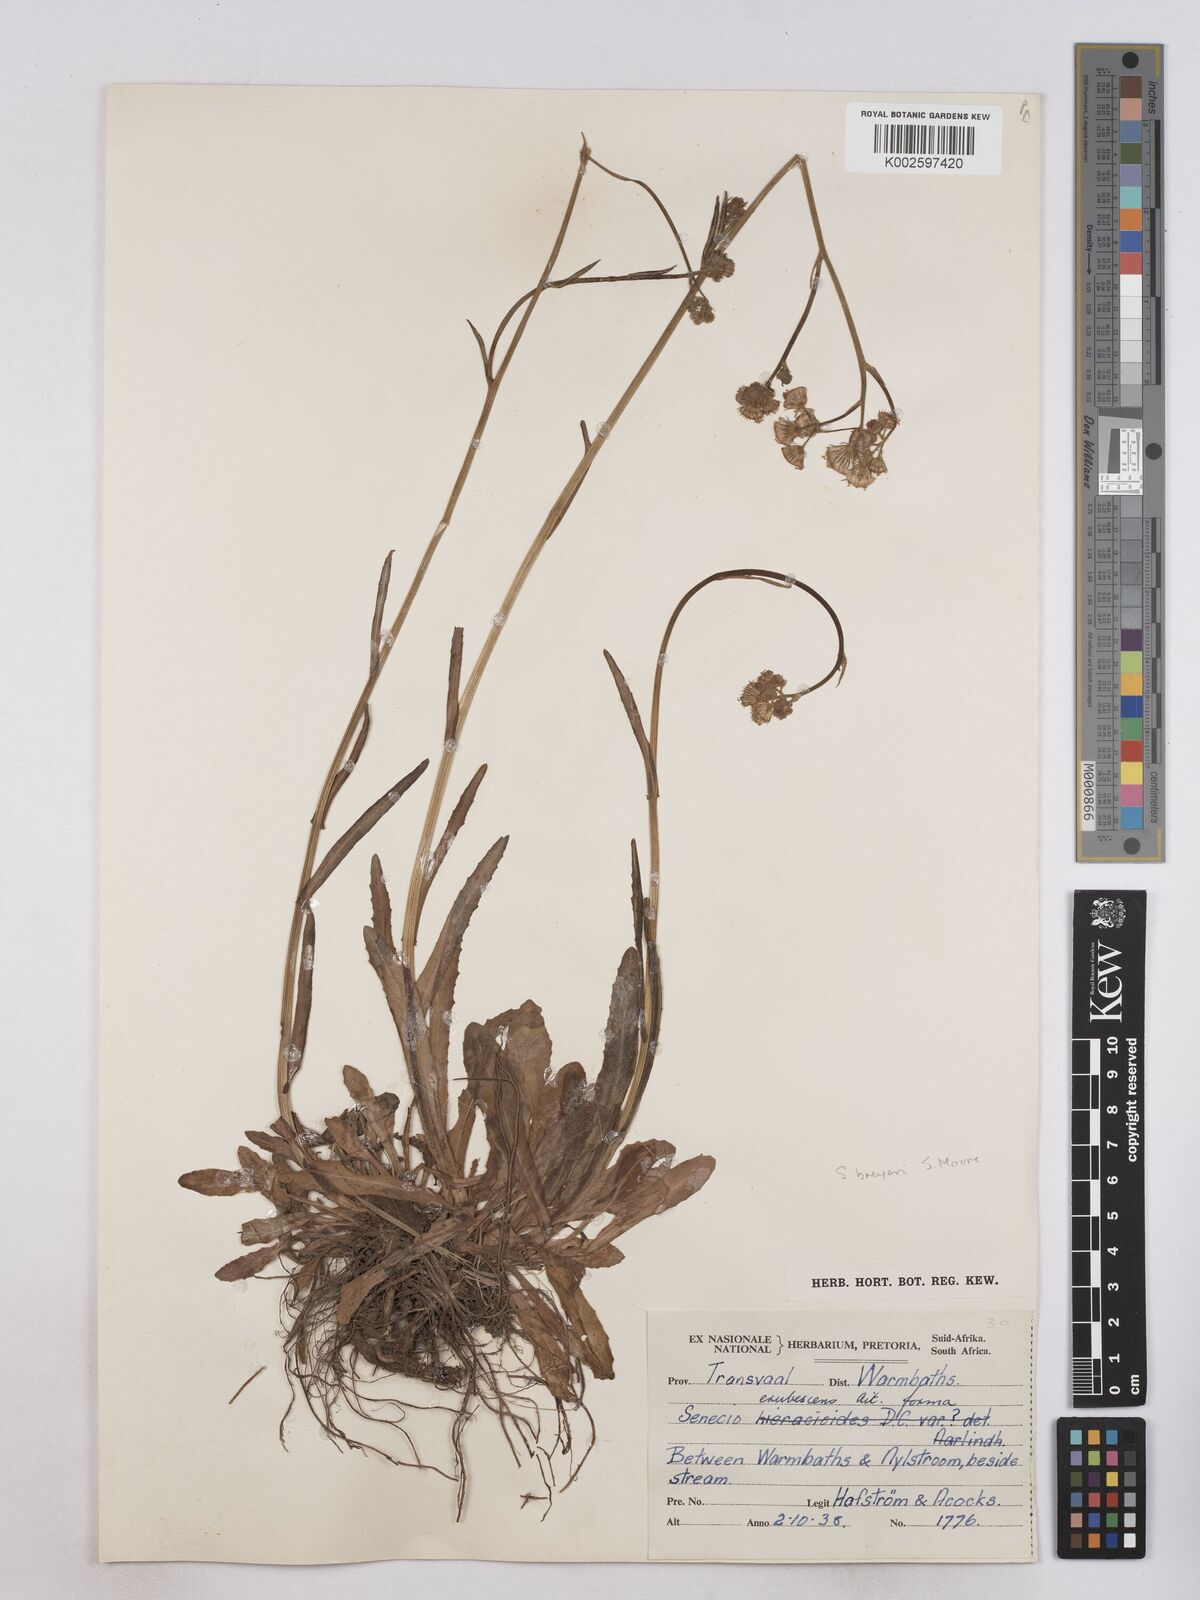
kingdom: Plantae
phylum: Tracheophyta
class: Magnoliopsida
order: Asterales
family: Asteraceae
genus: Senecio
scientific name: Senecio polyodon
